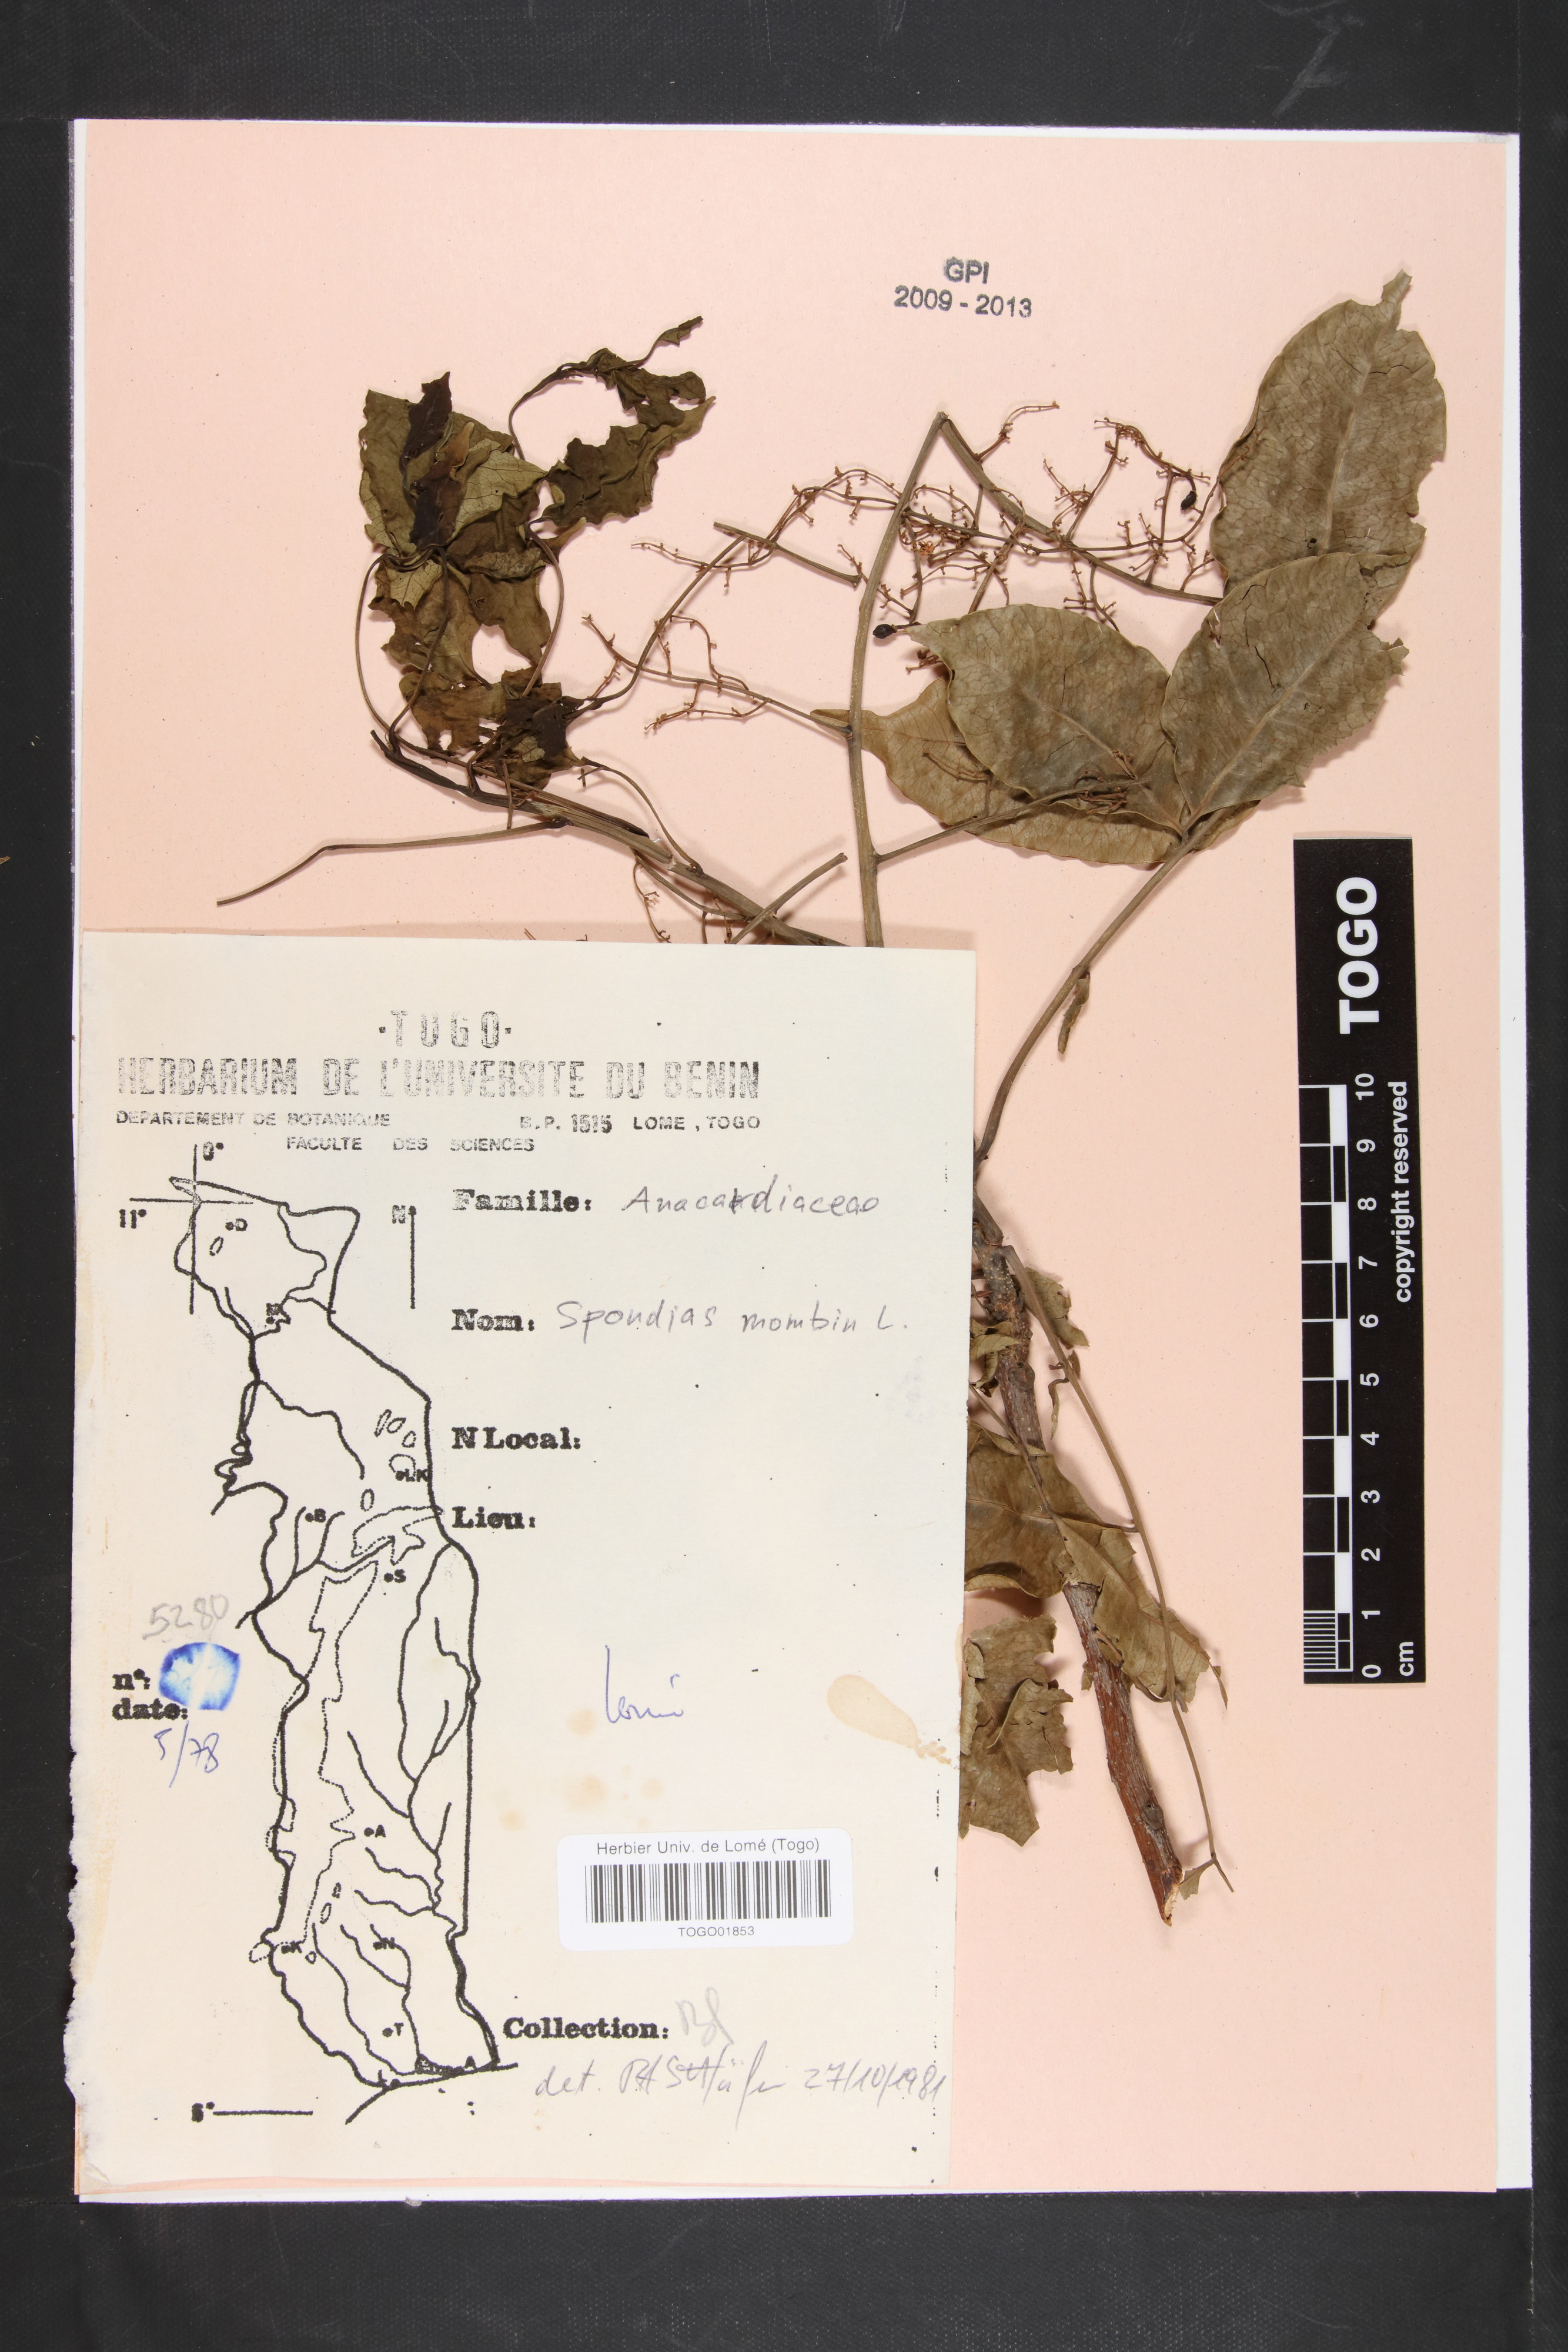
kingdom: Plantae
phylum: Tracheophyta
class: Magnoliopsida
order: Sapindales
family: Anacardiaceae
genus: Spondias
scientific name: Spondias mombin
